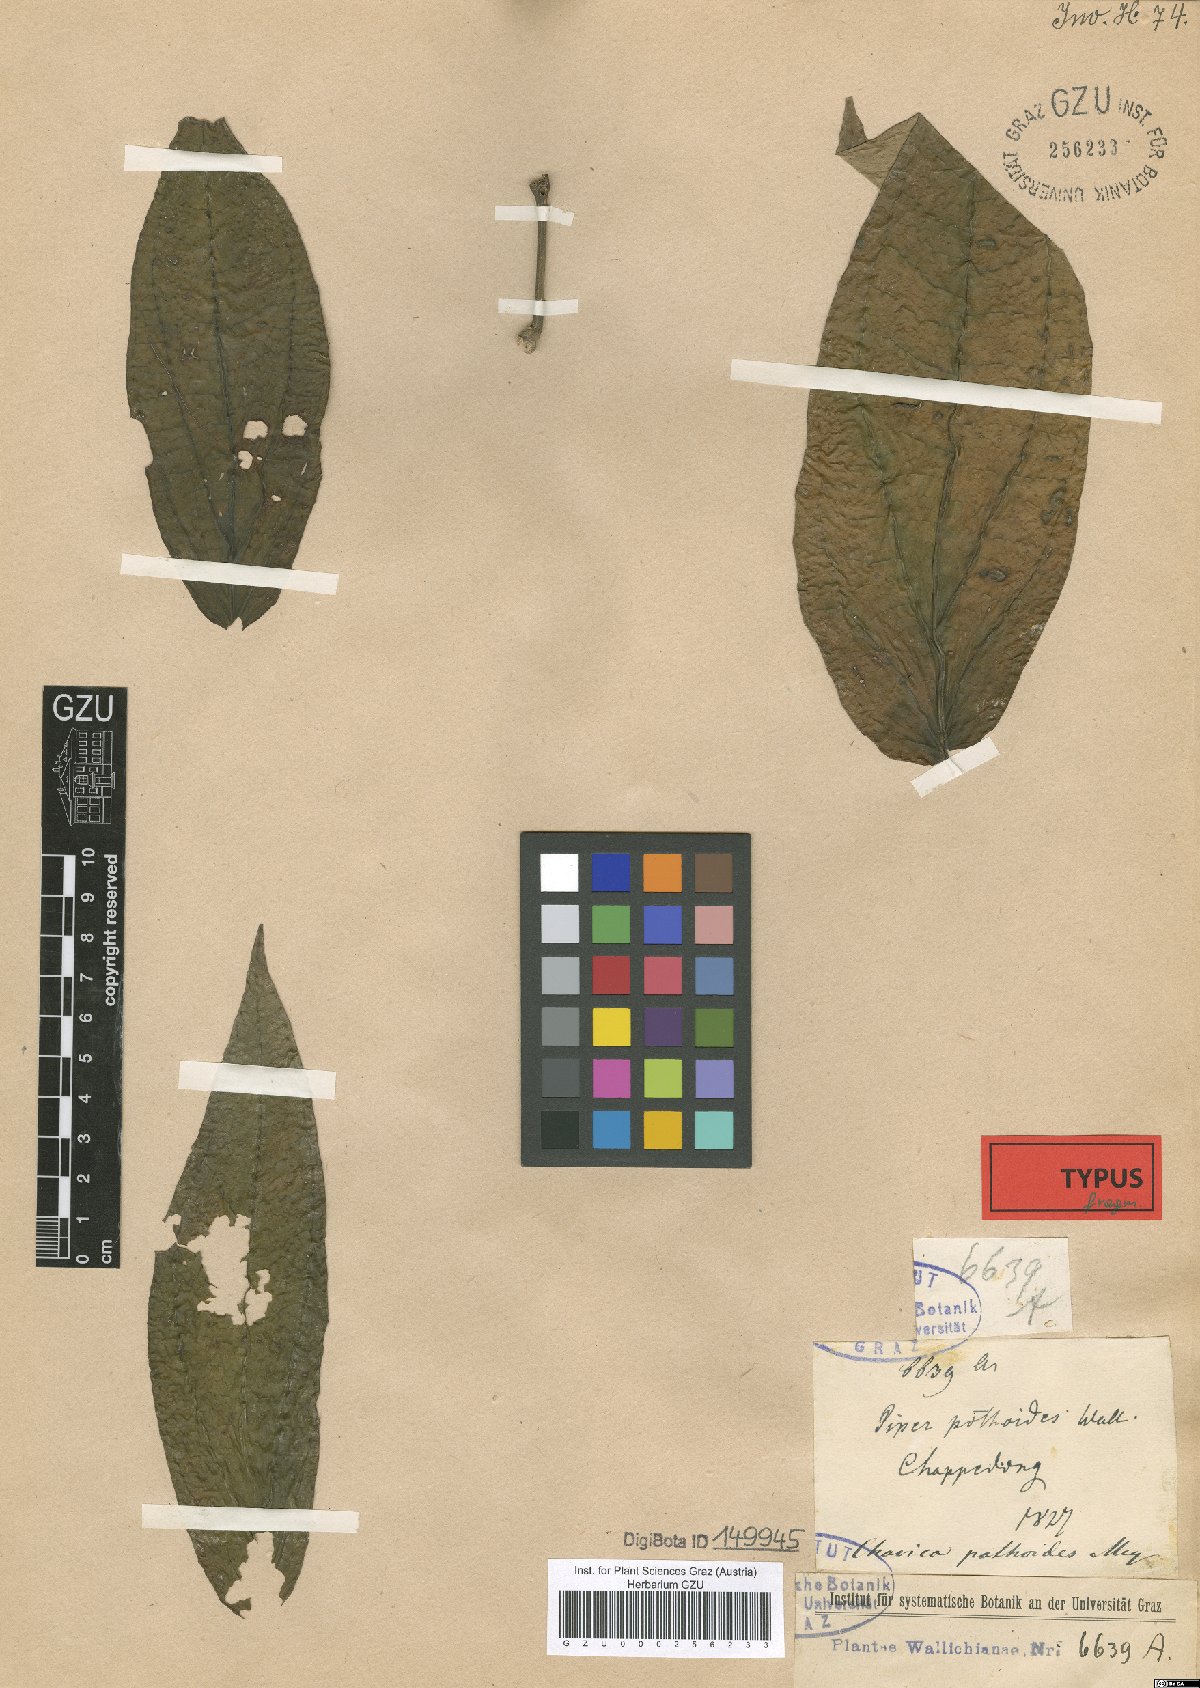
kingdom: Plantae
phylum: Tracheophyta
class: Magnoliopsida
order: Piperales
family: Piperaceae
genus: Piper
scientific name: Piper pothoides
